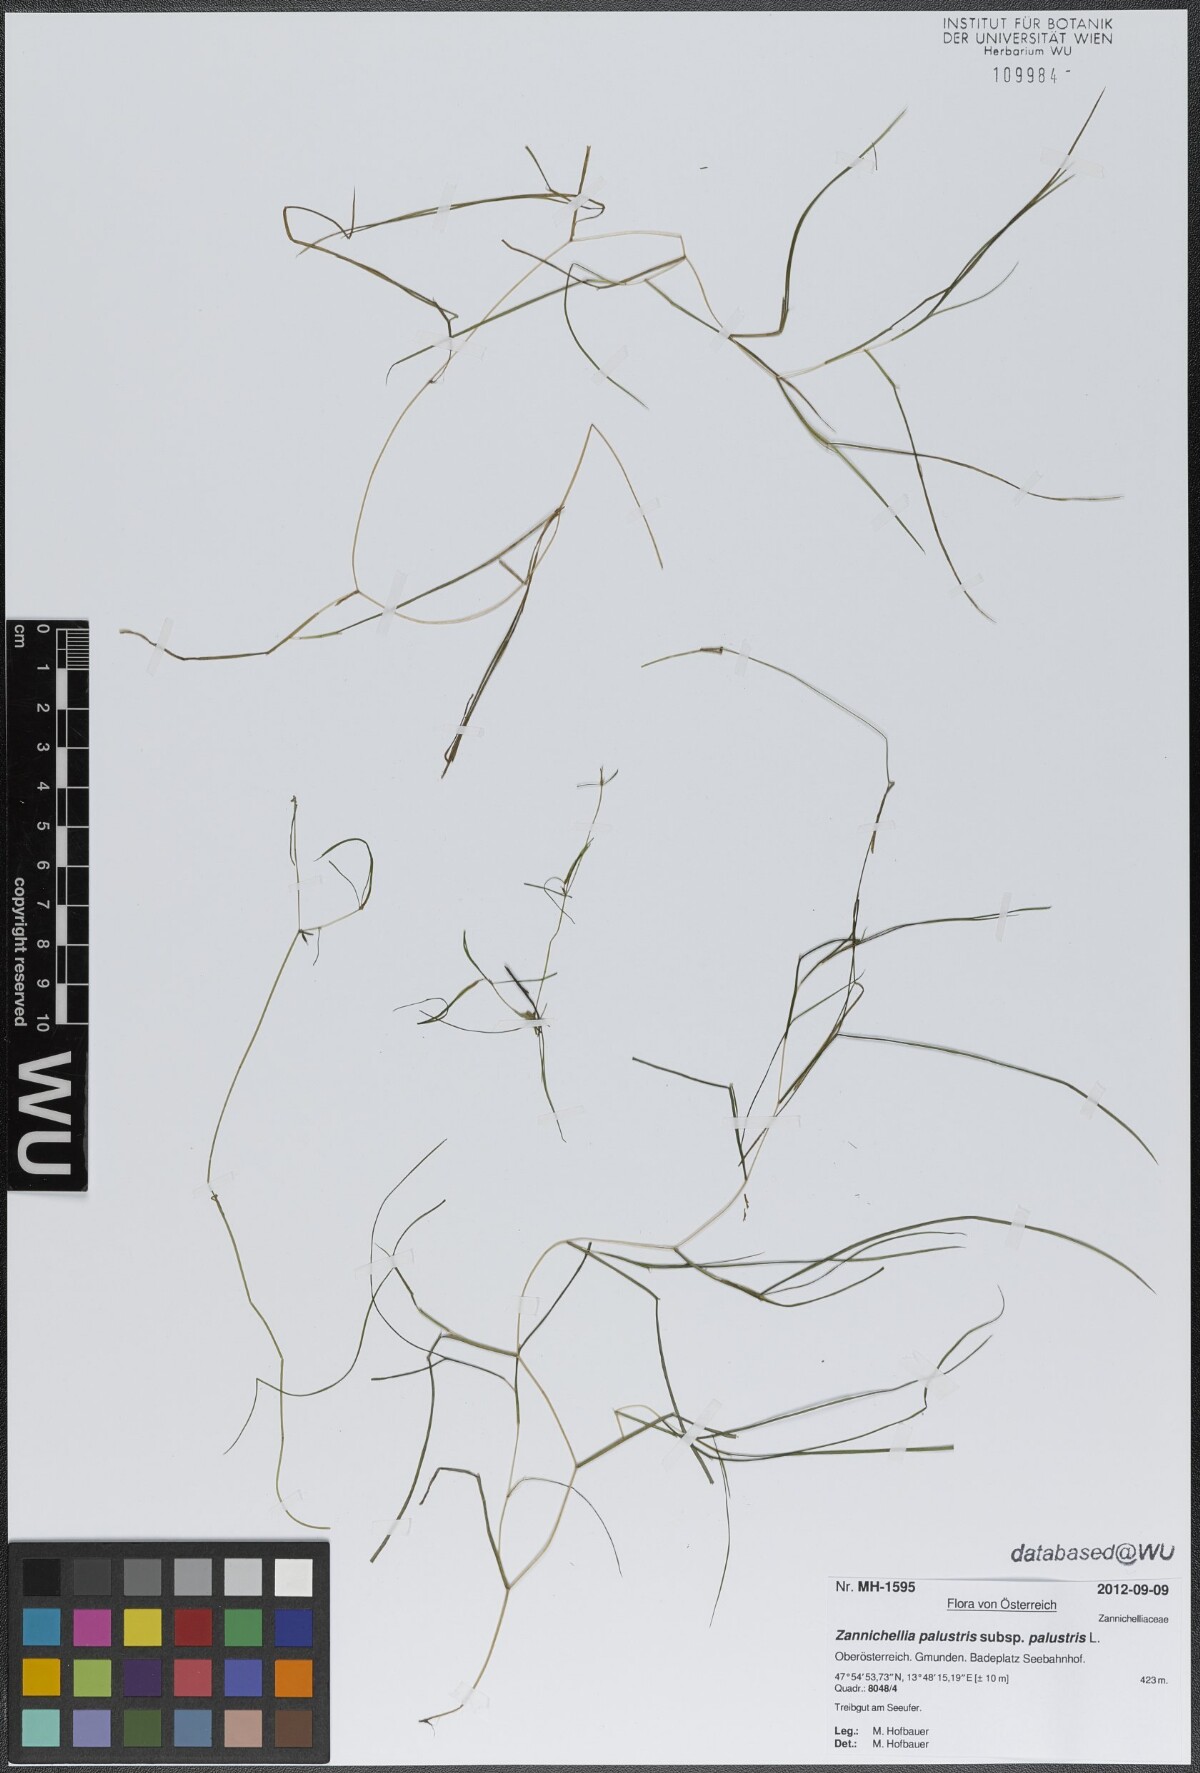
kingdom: Plantae
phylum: Tracheophyta
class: Liliopsida
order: Alismatales
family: Potamogetonaceae
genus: Zannichellia
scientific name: Zannichellia palustris
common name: Horned pondweed
